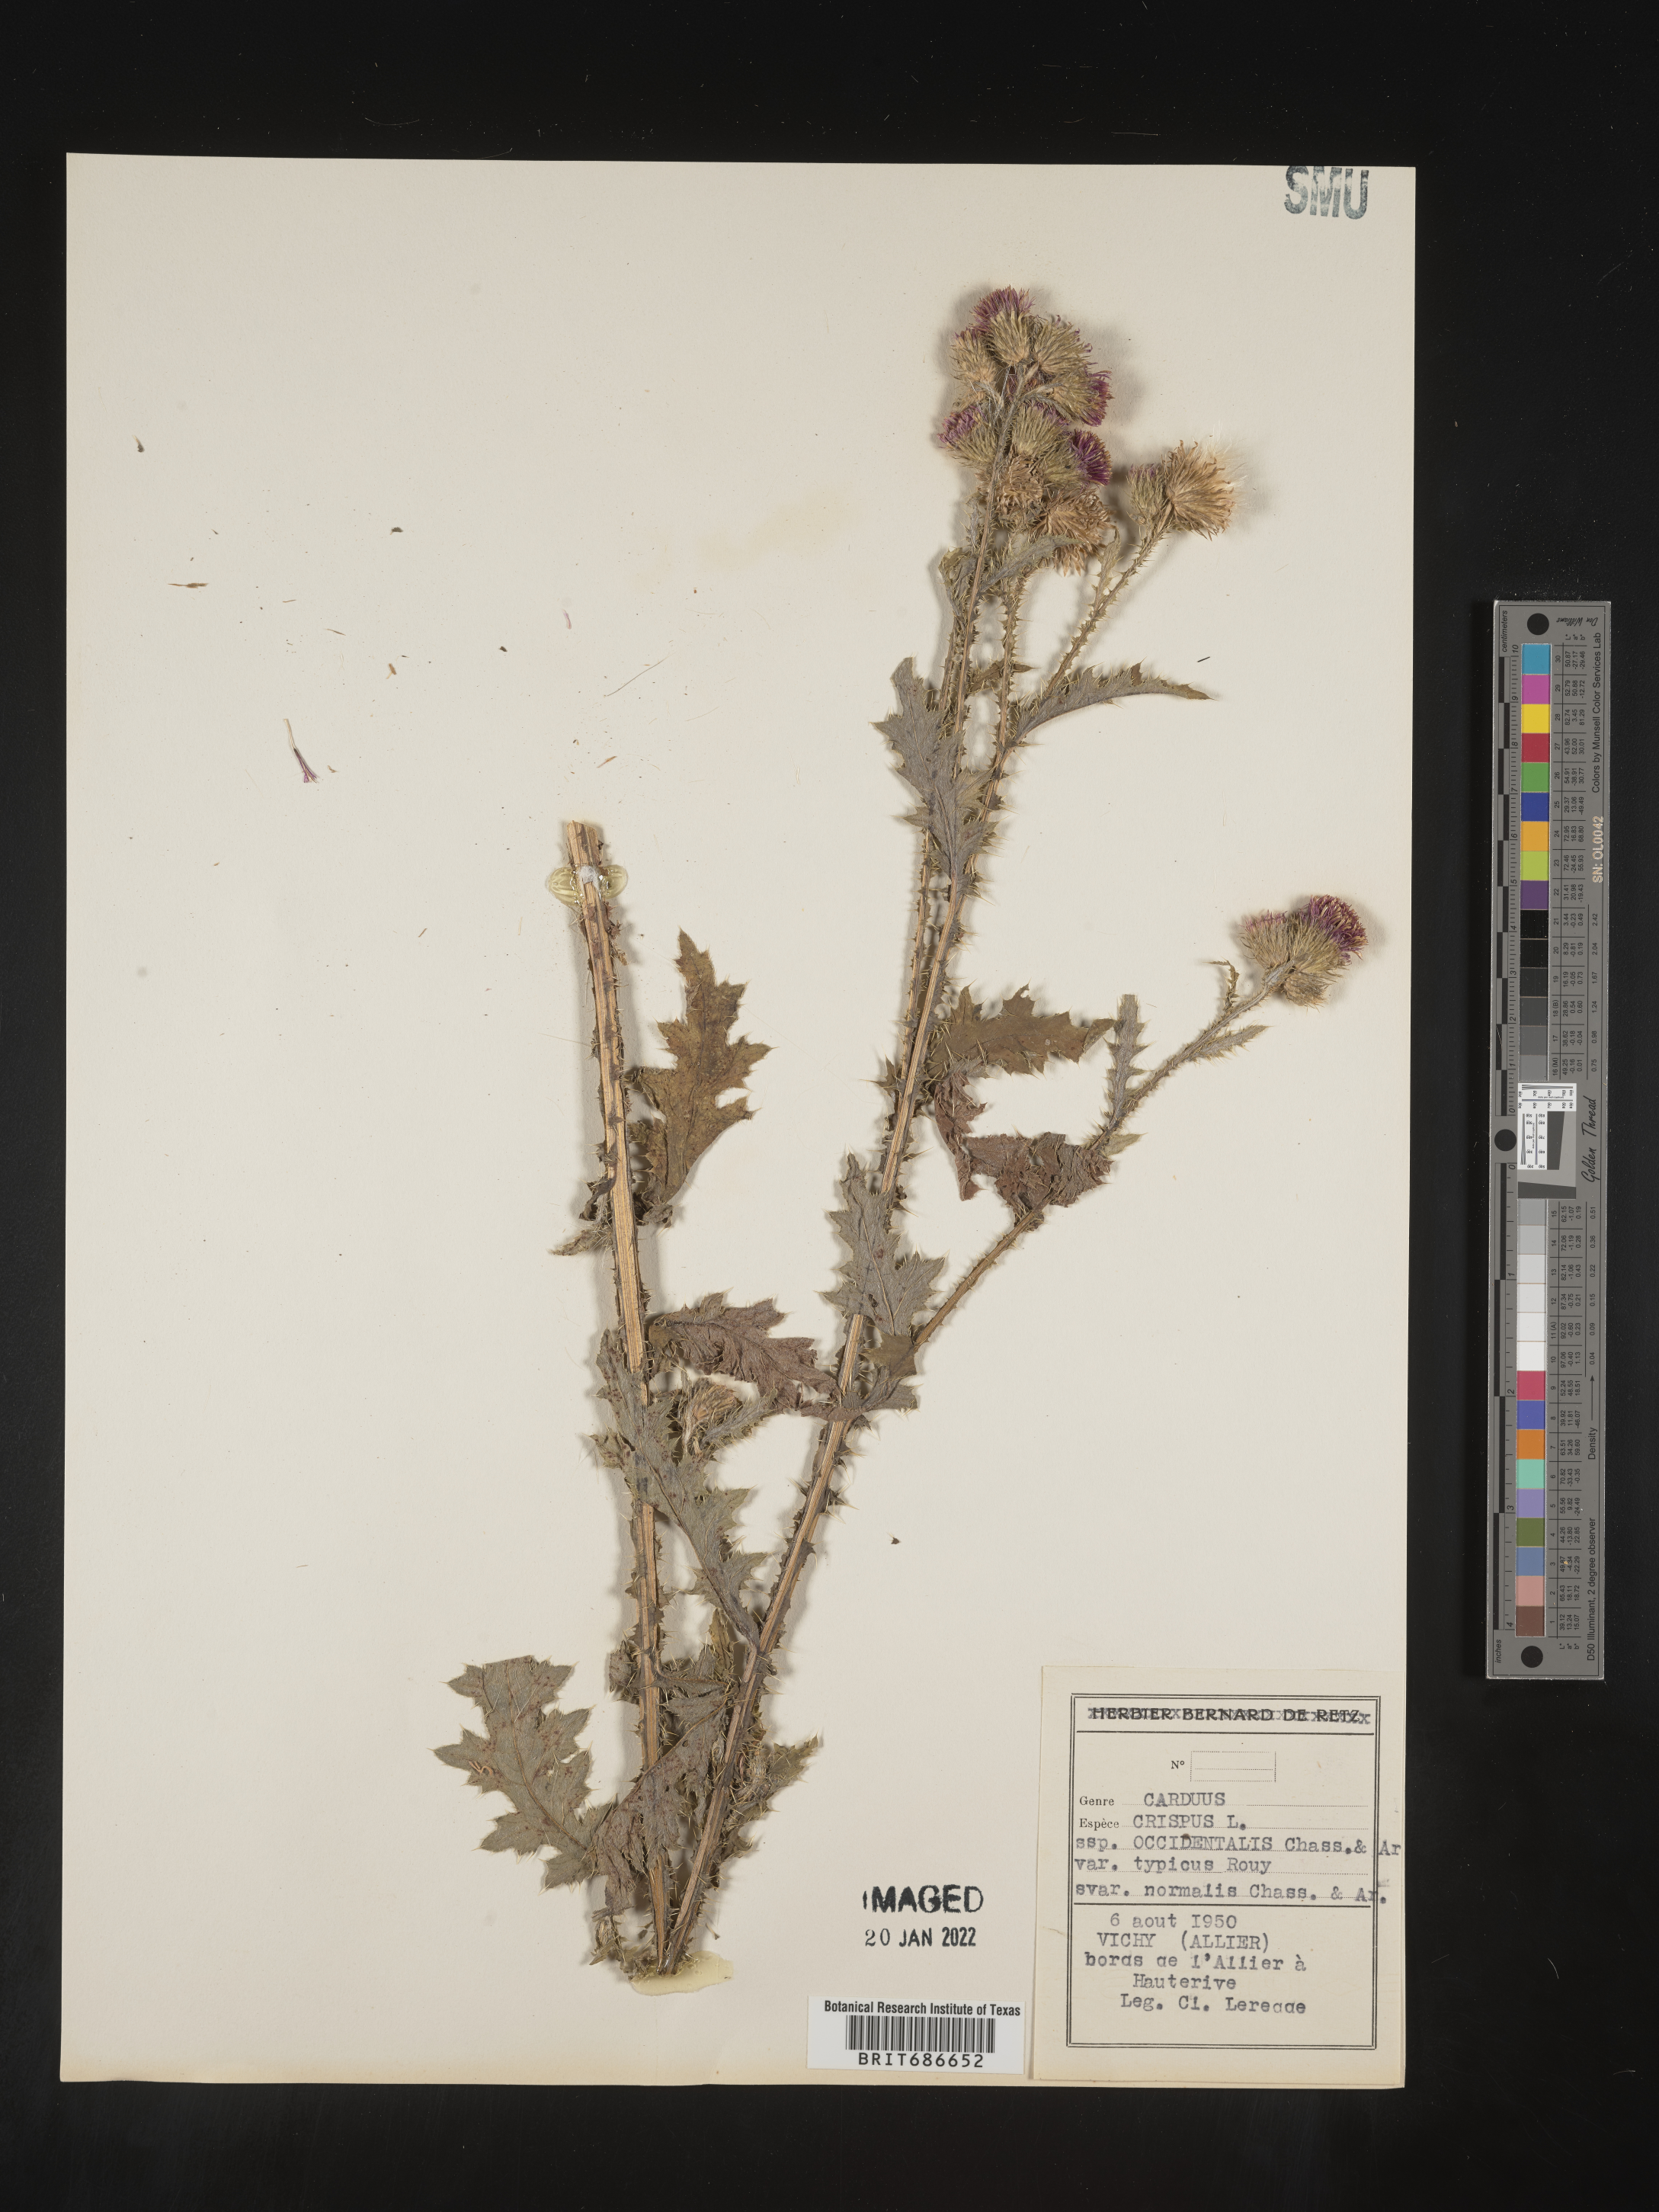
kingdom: Plantae
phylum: Tracheophyta
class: Magnoliopsida
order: Asterales
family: Asteraceae
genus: Carduus
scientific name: Carduus crispus
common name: Welted thistle
